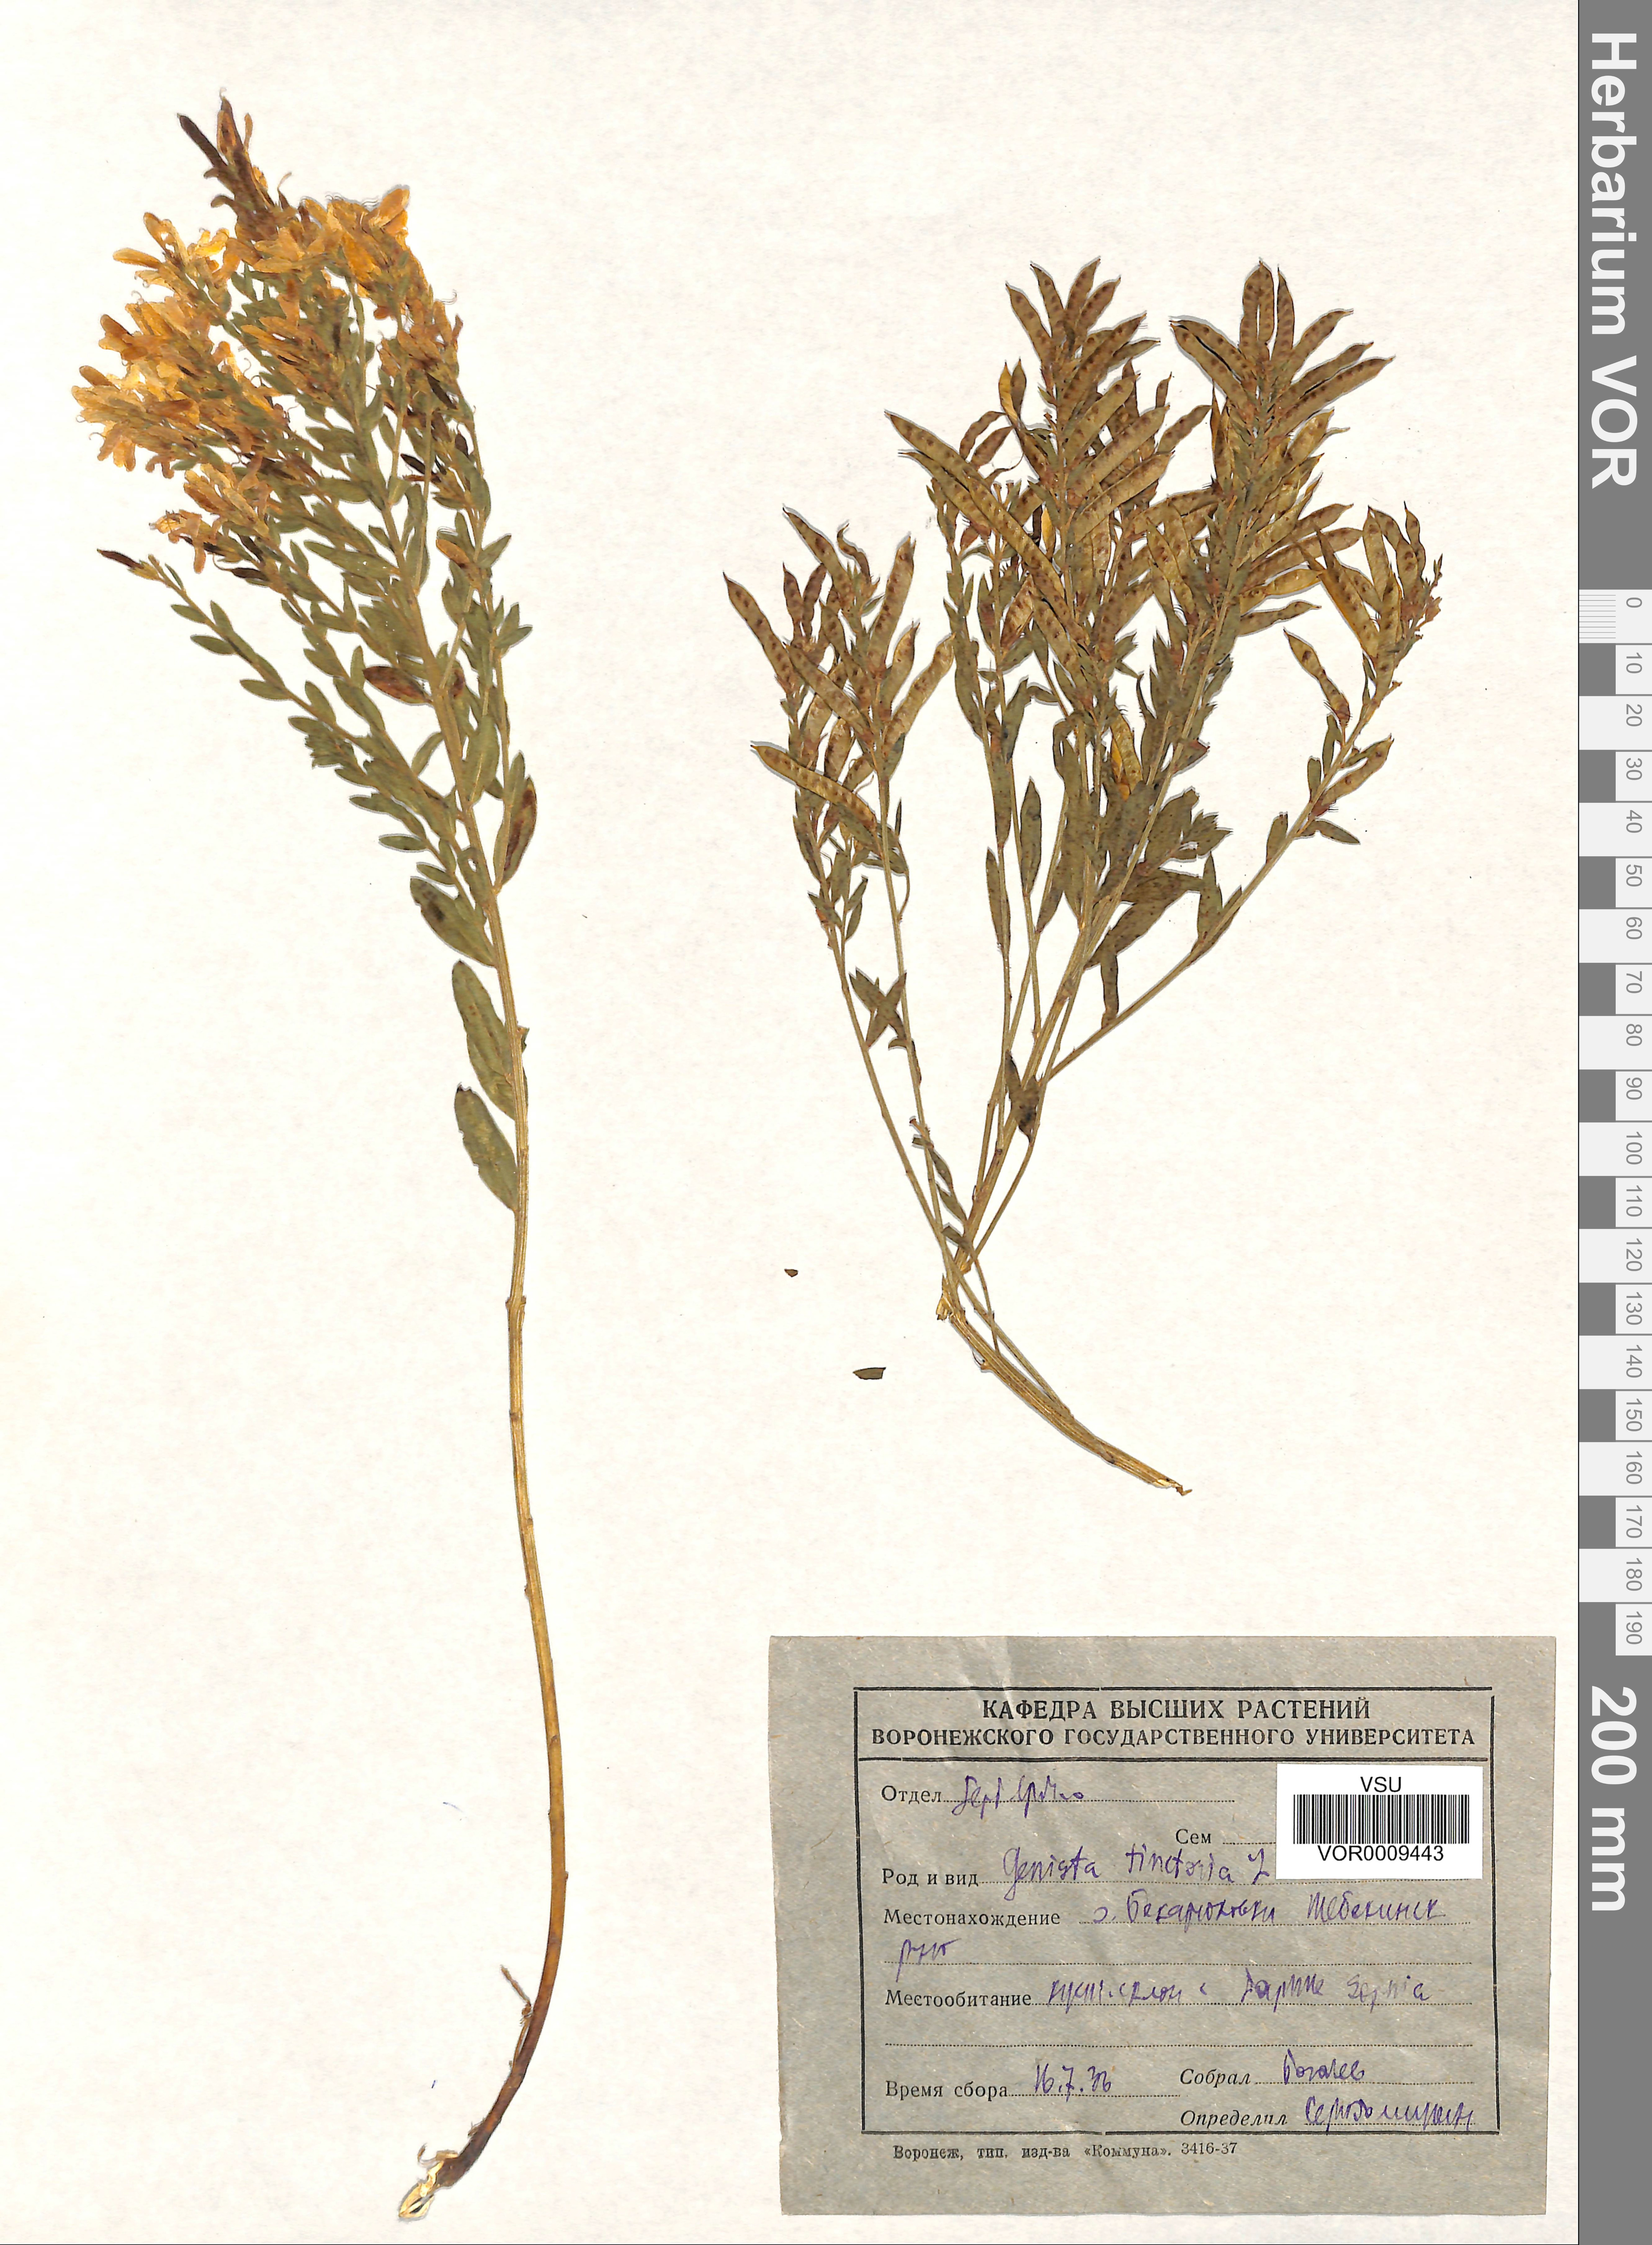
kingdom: Plantae
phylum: Tracheophyta
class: Magnoliopsida
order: Fabales
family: Fabaceae
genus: Genista
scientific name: Genista tinctoria
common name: Dyer's greenweed
